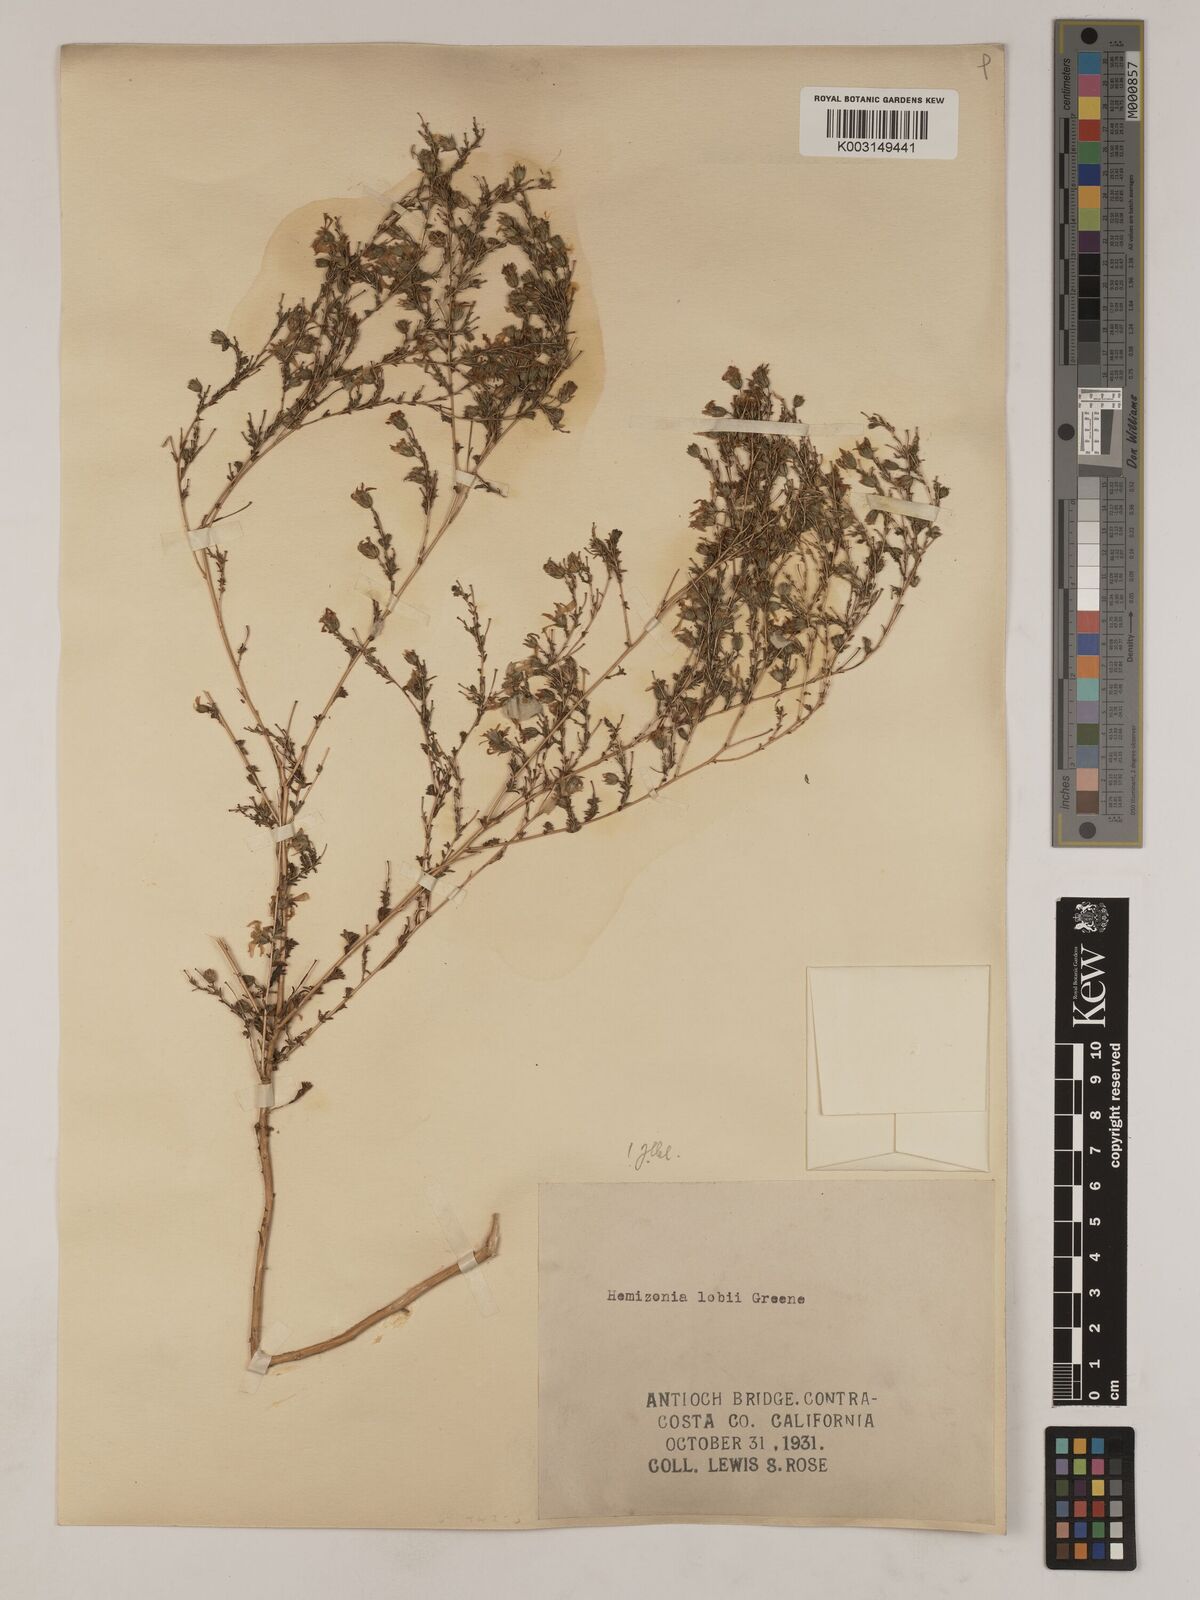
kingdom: Plantae
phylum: Tracheophyta
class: Magnoliopsida
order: Asterales
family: Asteraceae
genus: Deinandra
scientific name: Deinandra lobbii
